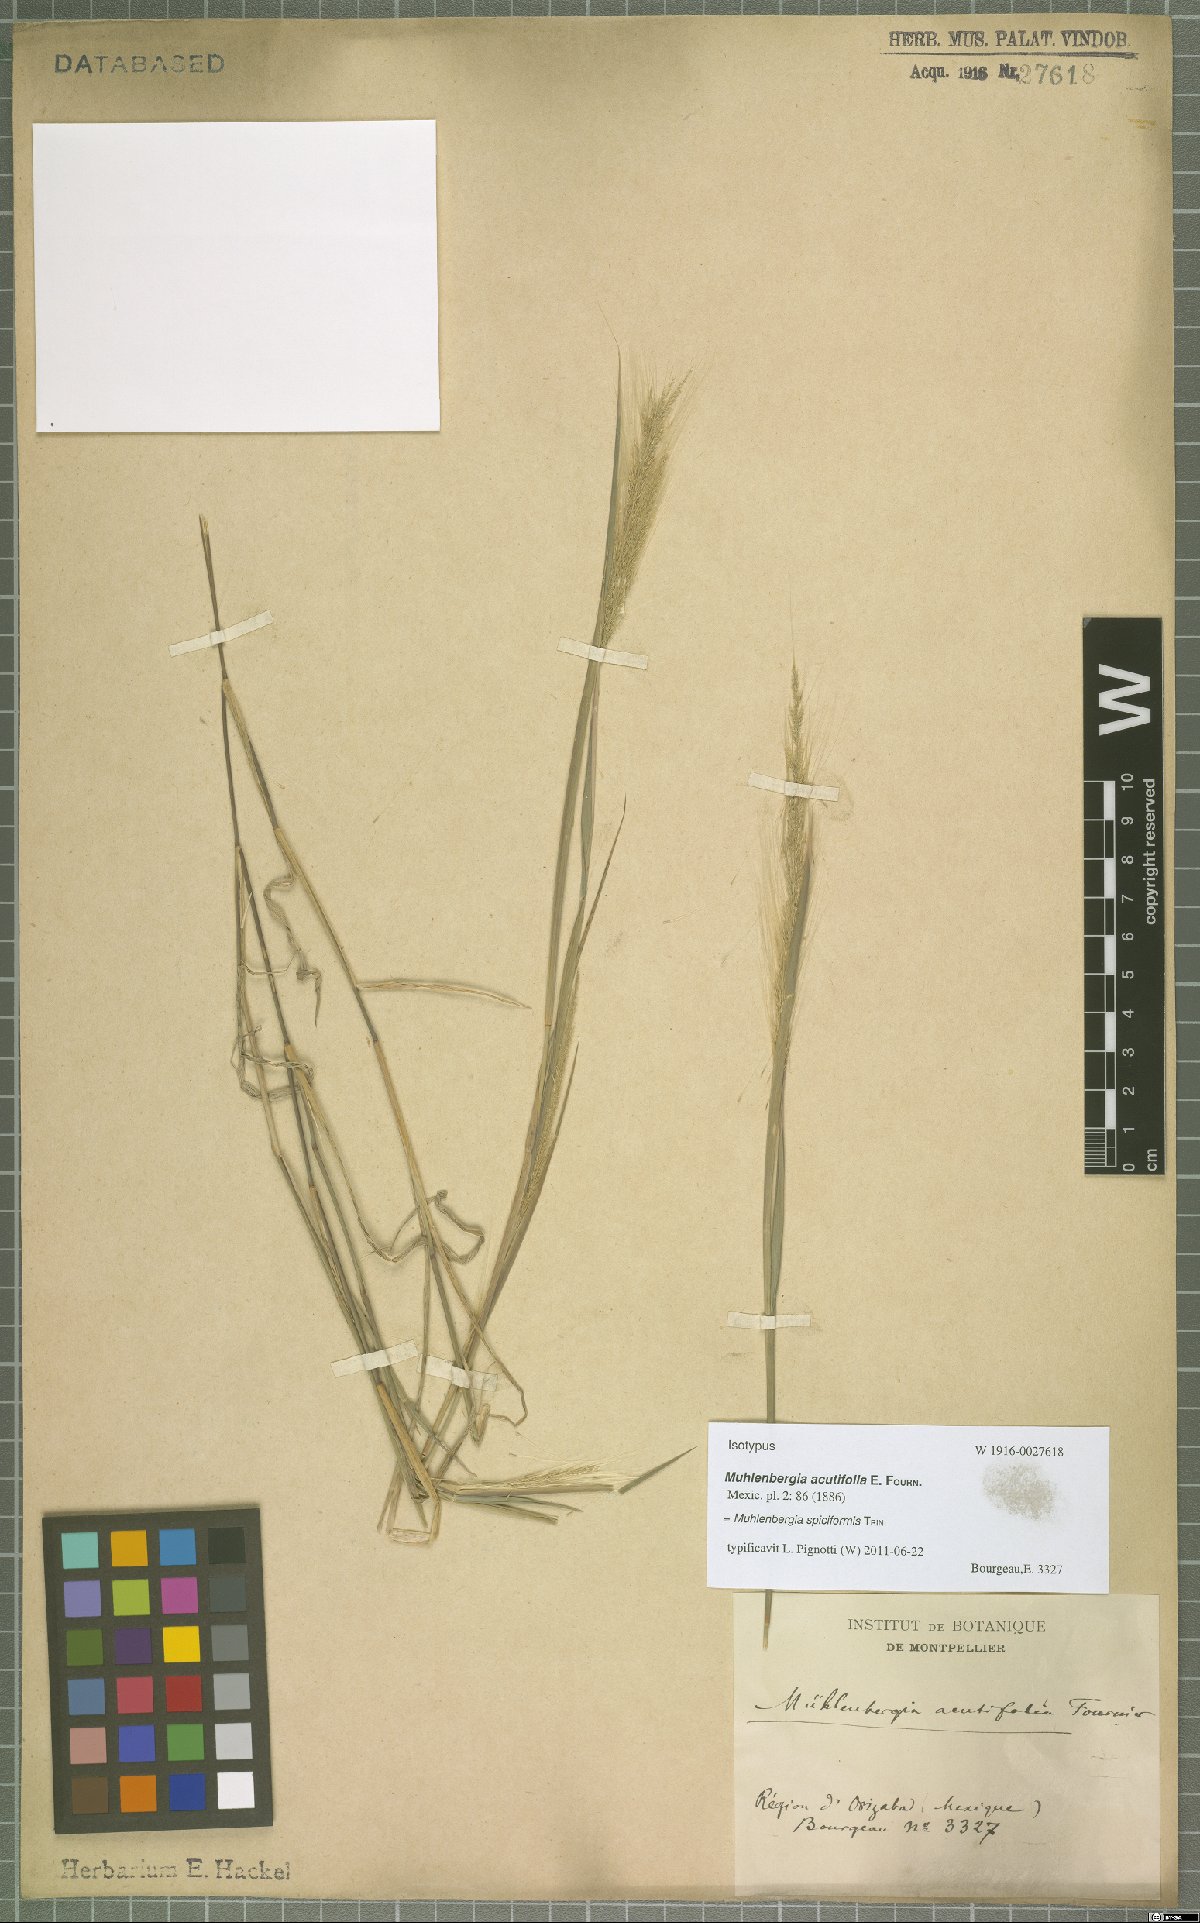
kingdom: Plantae
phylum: Tracheophyta
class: Liliopsida
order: Poales
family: Poaceae
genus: Muhlenbergia
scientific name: Muhlenbergia spiciformis
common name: Longawn muhly
